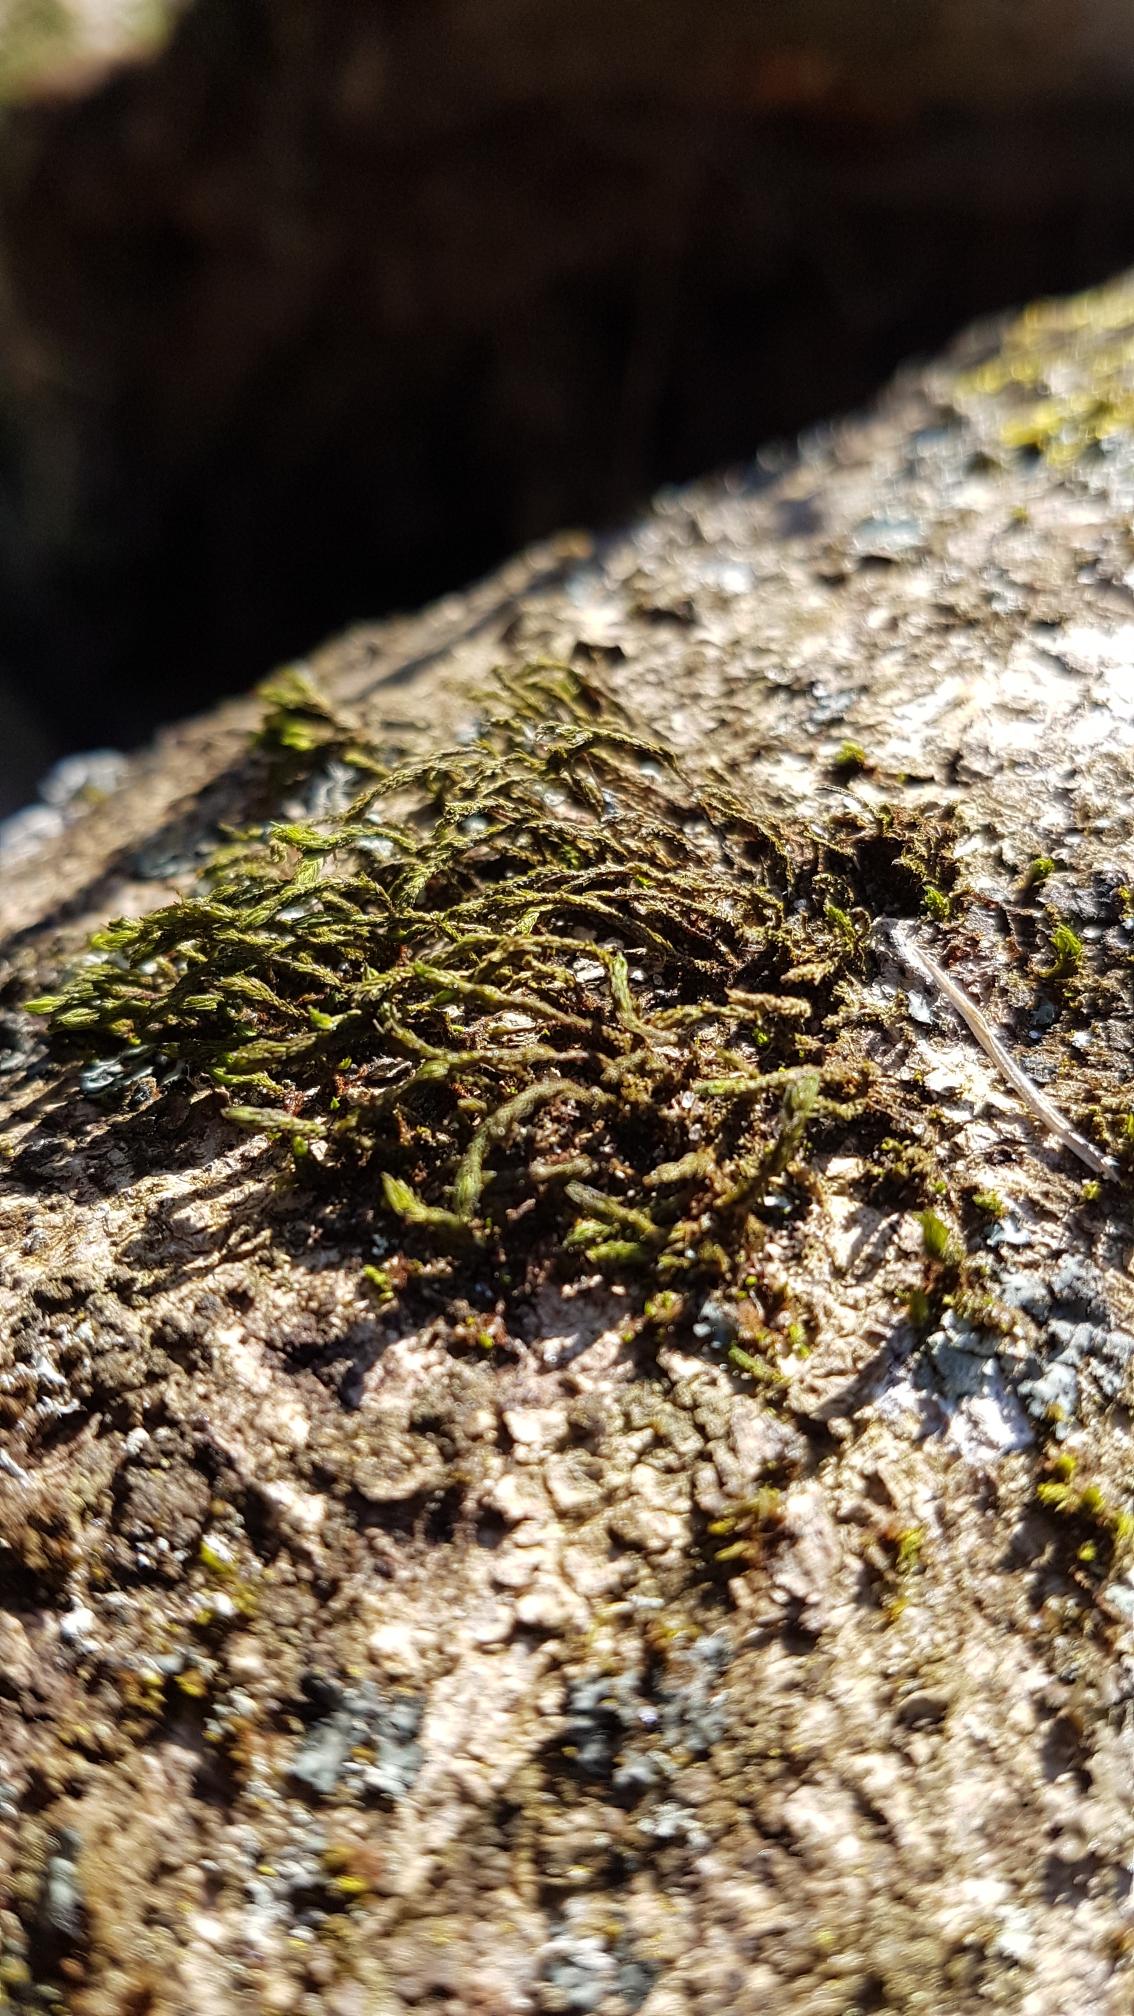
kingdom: Plantae
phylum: Bryophyta
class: Bryopsida
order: Orthotrichales
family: Orthotrichaceae
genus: Pulvigera
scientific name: Pulvigera lyellii
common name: Stor furehætte
